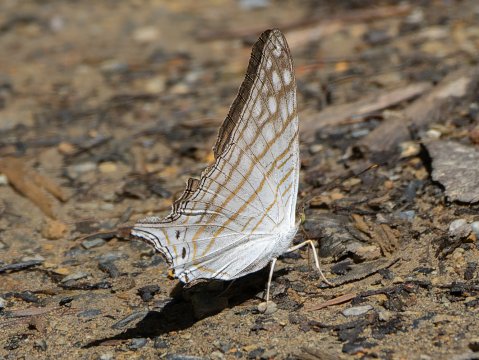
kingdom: Animalia
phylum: Arthropoda
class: Insecta
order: Lepidoptera
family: Nymphalidae
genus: Marpesia
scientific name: Marpesia merops
